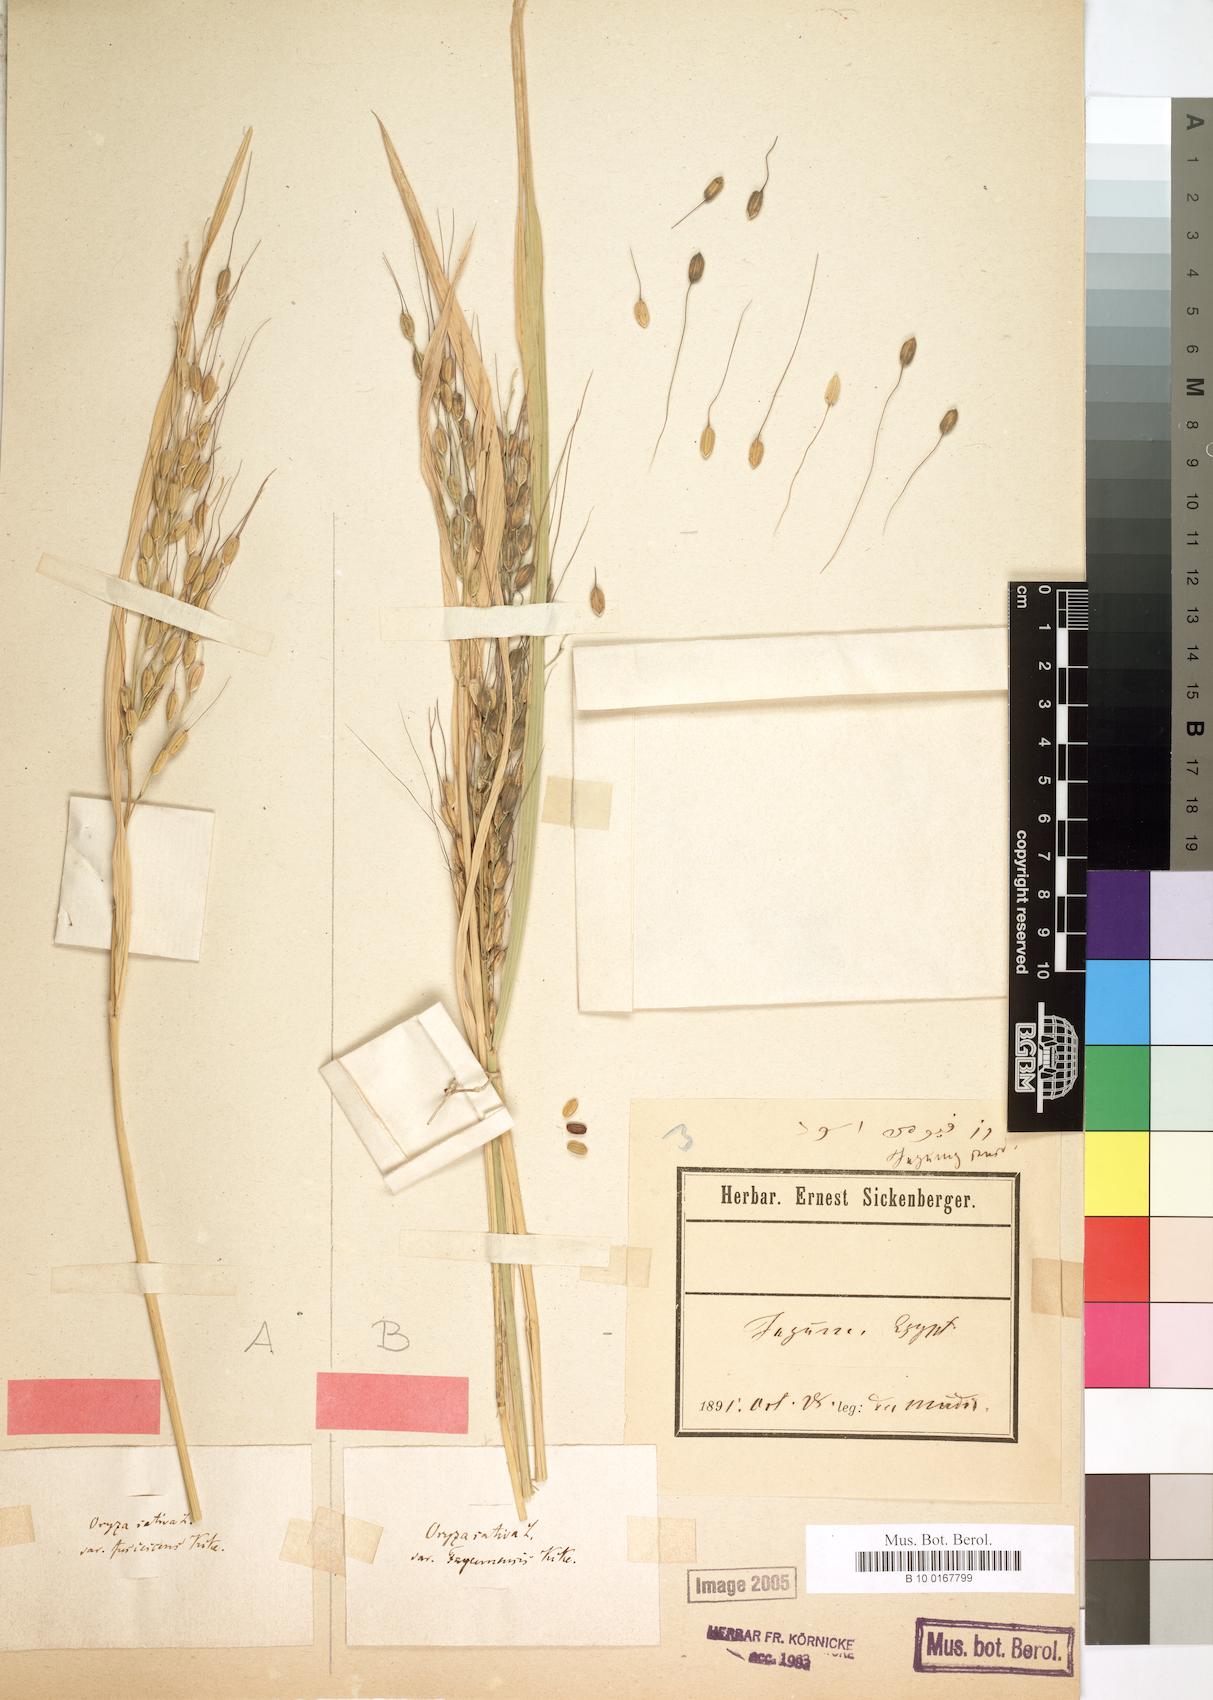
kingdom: Plantae
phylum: Tracheophyta
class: Liliopsida
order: Poales
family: Poaceae
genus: Oryza
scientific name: Oryza sativa
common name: Rice
